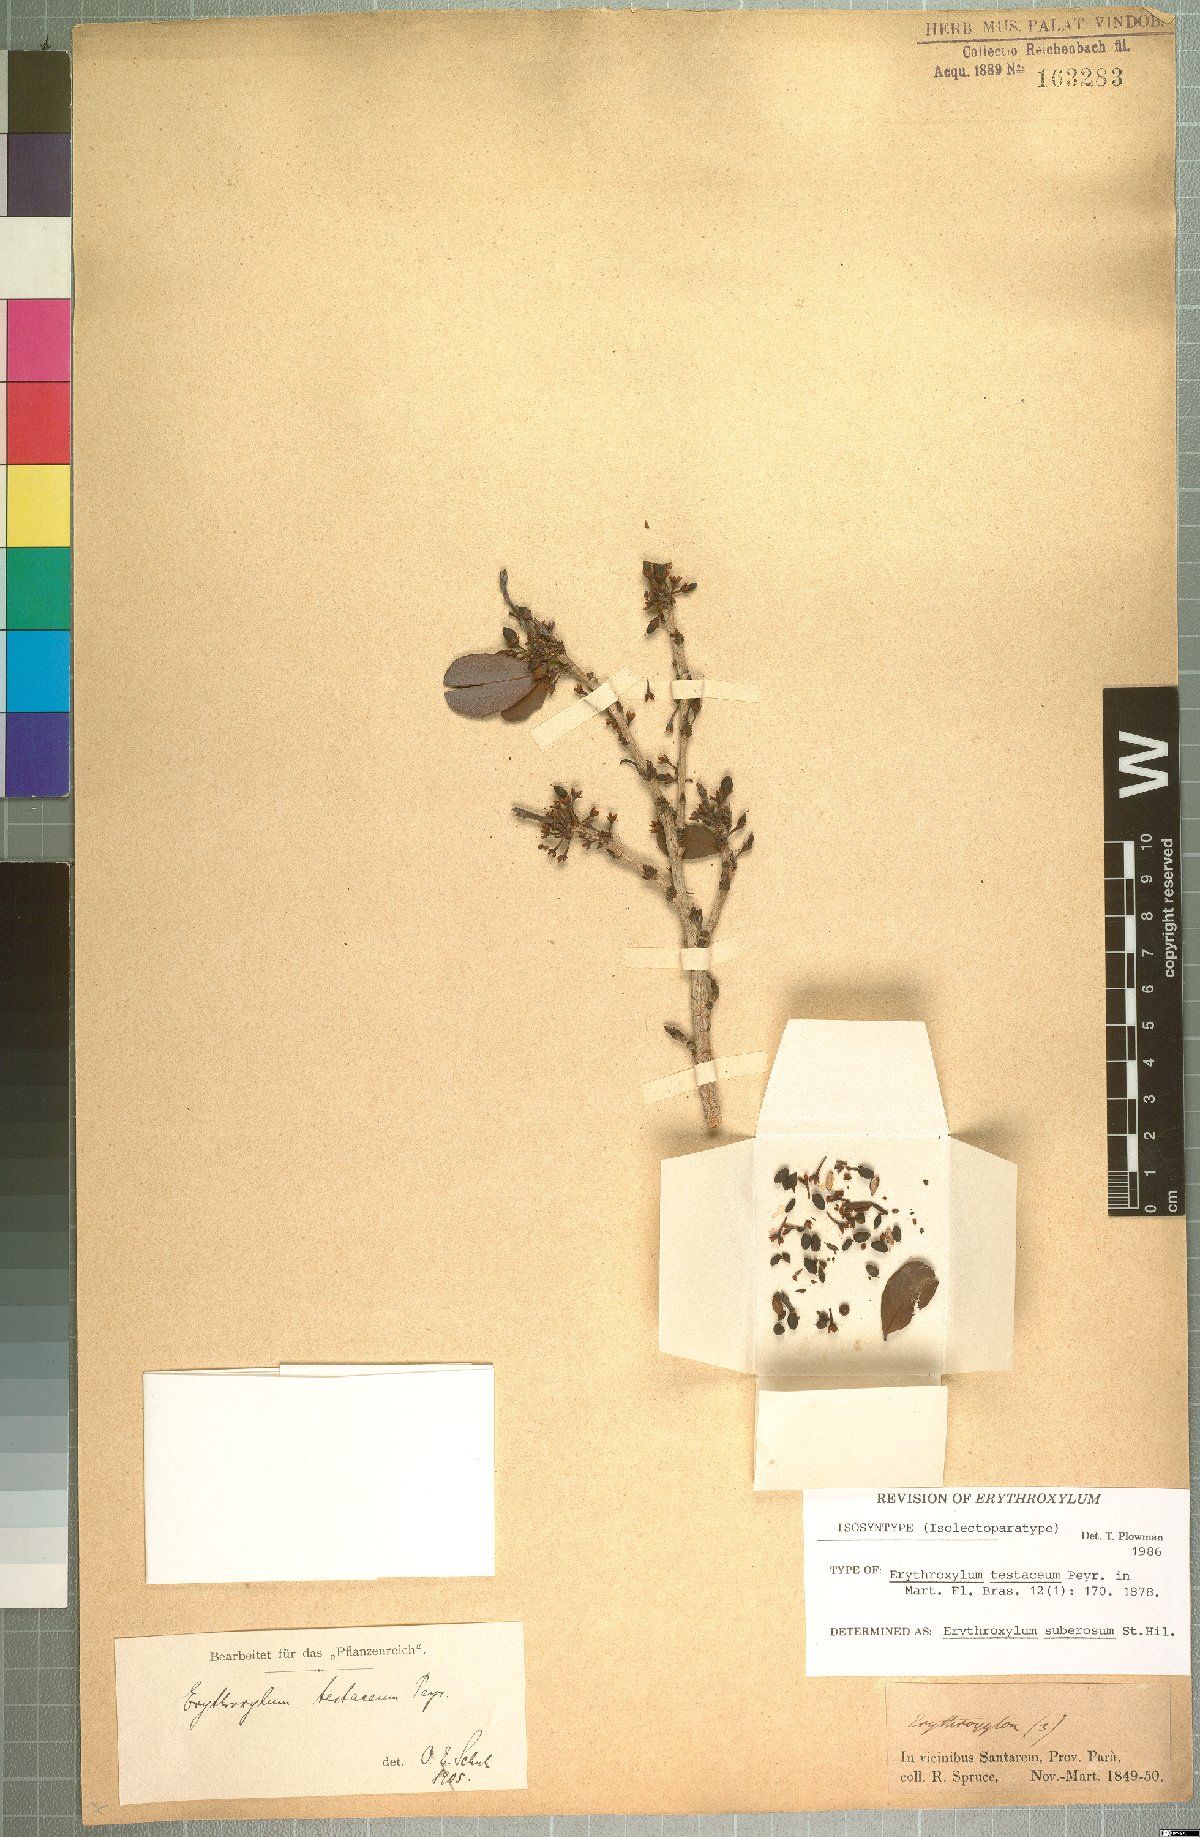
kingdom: Plantae
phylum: Tracheophyta
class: Magnoliopsida
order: Malpighiales
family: Erythroxylaceae
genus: Erythroxylum
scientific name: Erythroxylum suberosum
